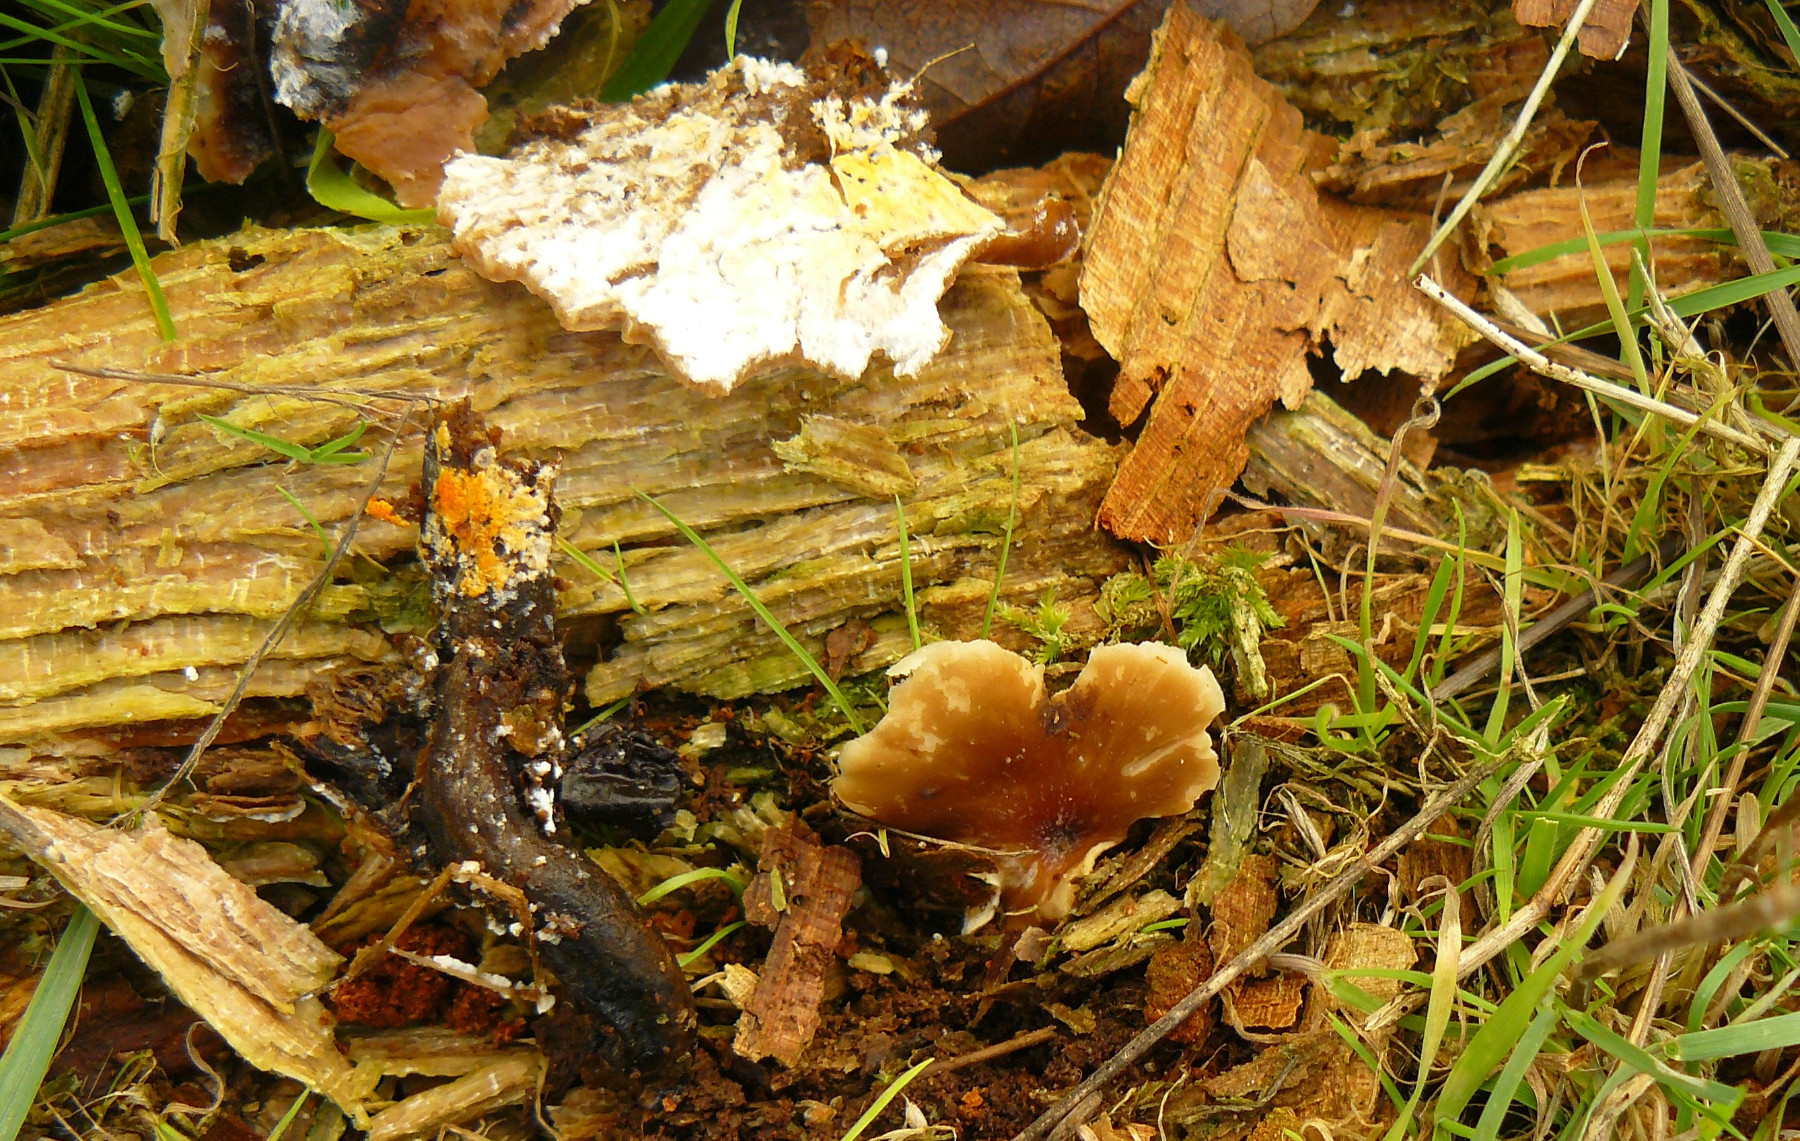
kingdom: Fungi
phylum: Basidiomycota
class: Agaricomycetes
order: Polyporales
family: Polyporaceae
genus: Picipes
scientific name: Picipes badius
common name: kastaniebrun stilkporesvamp
